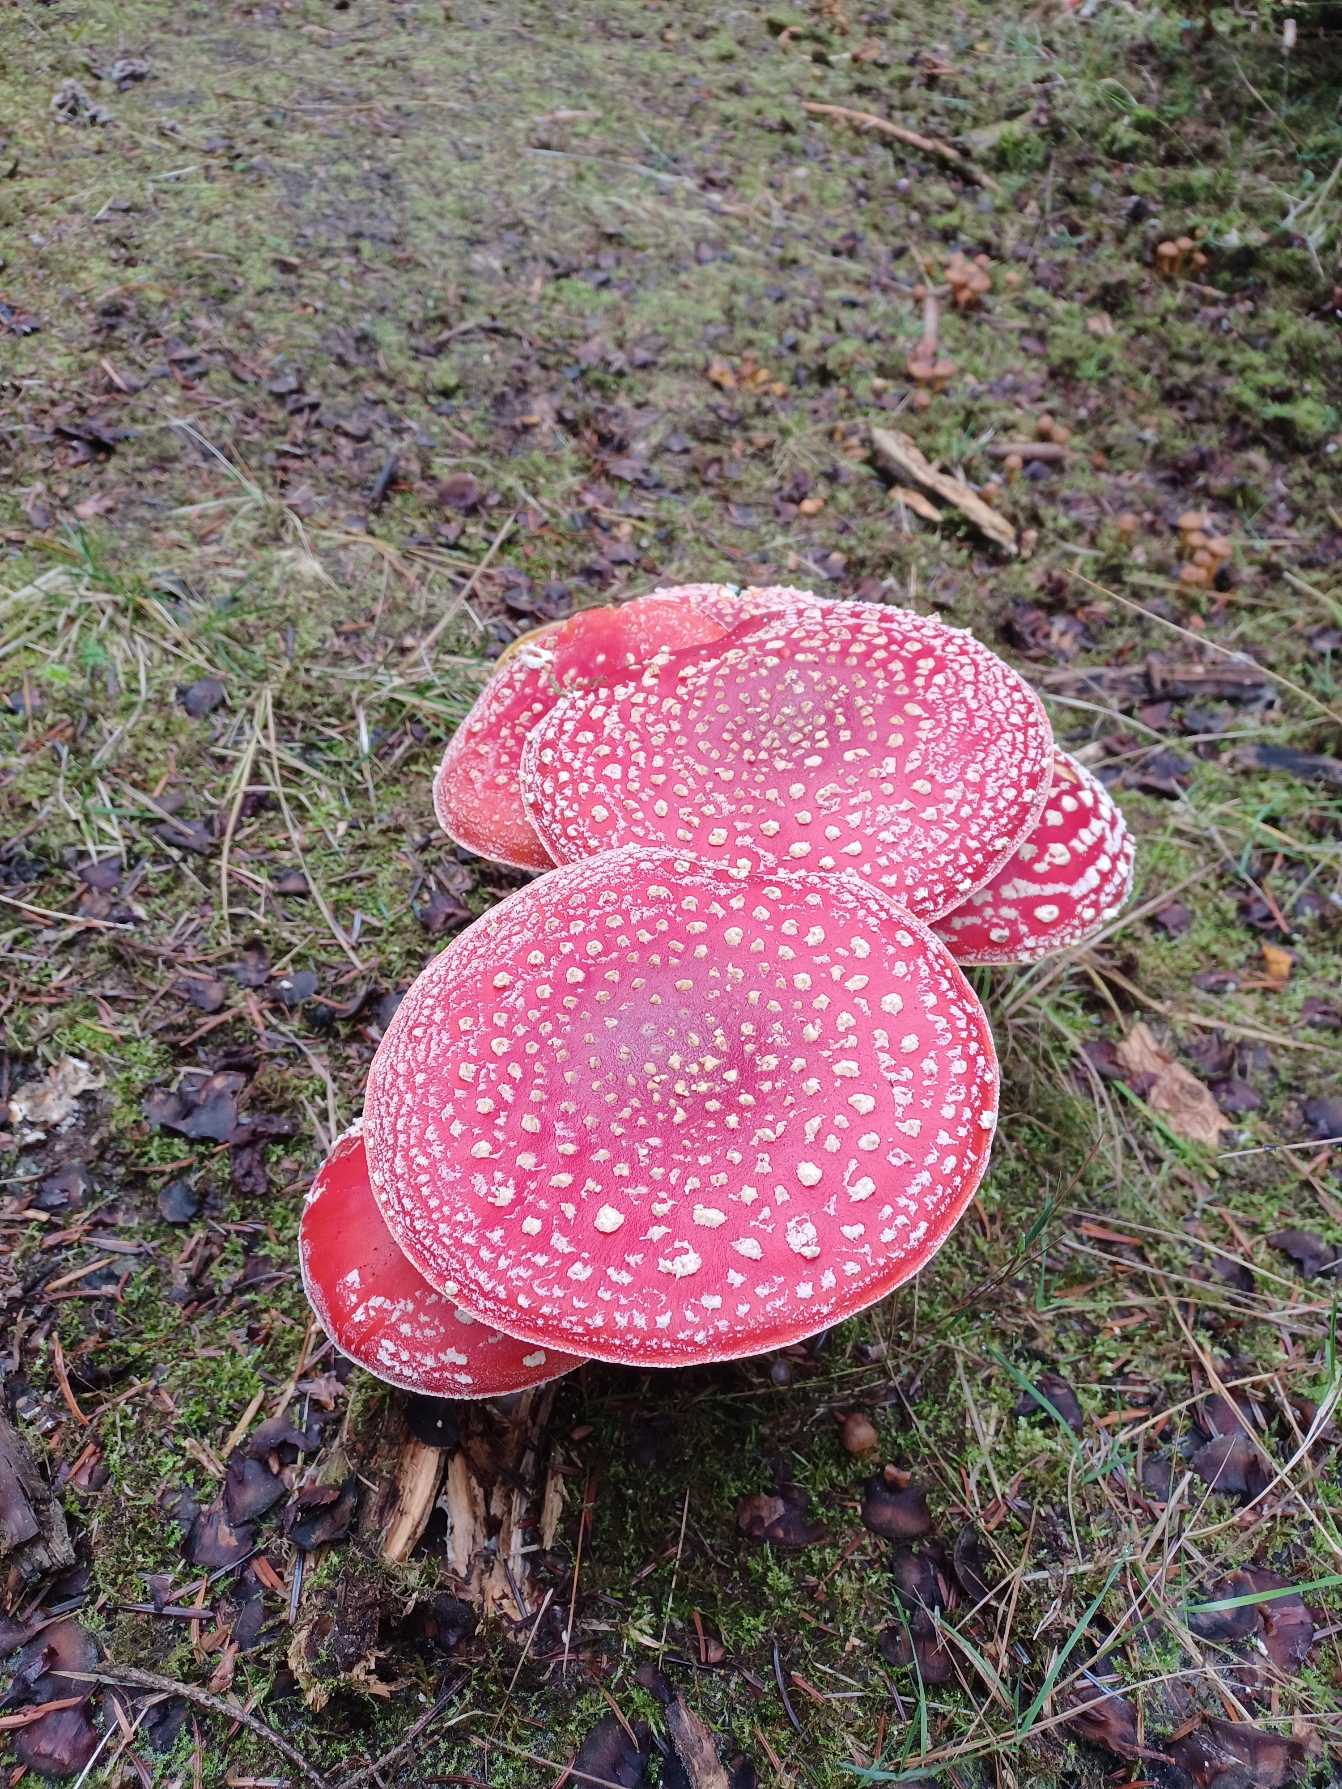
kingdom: Fungi
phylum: Basidiomycota
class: Agaricomycetes
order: Agaricales
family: Amanitaceae
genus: Amanita
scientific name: Amanita muscaria
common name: Rød fluesvamp
